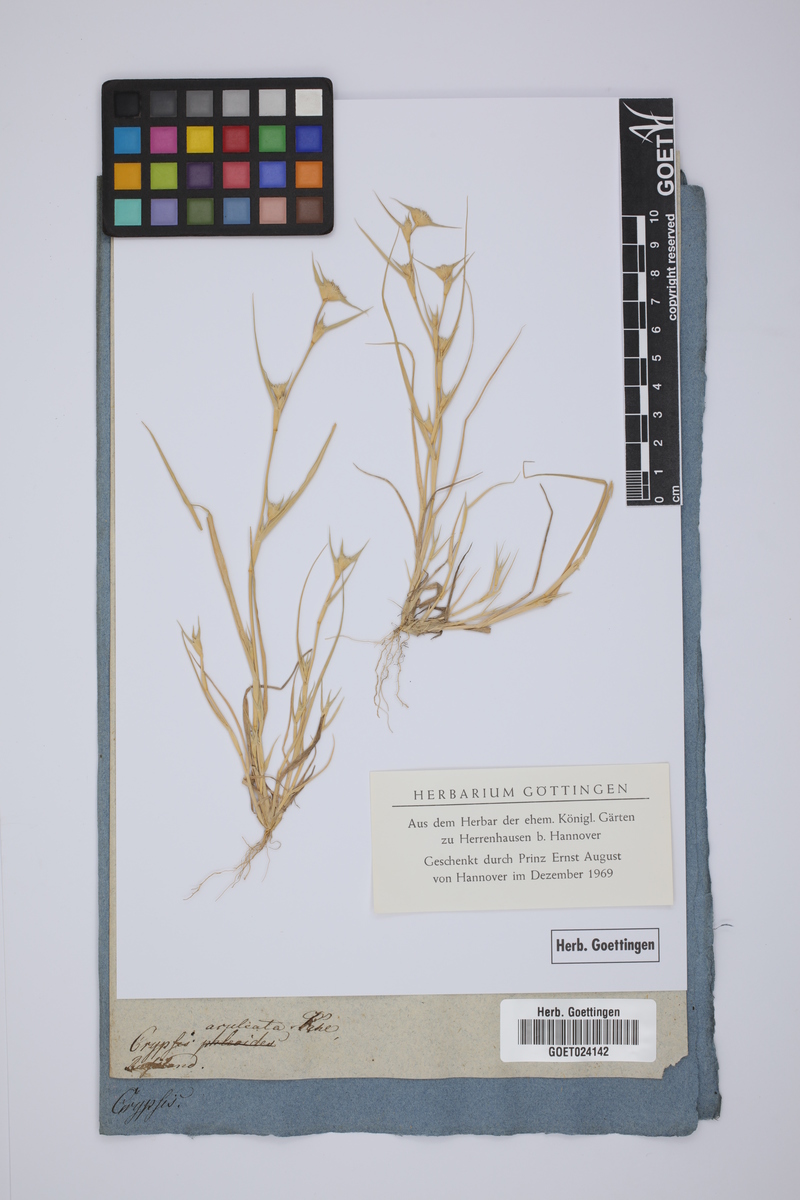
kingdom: Plantae
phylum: Tracheophyta
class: Liliopsida
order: Poales
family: Poaceae
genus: Sporobolus
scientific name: Sporobolus aculeatus
